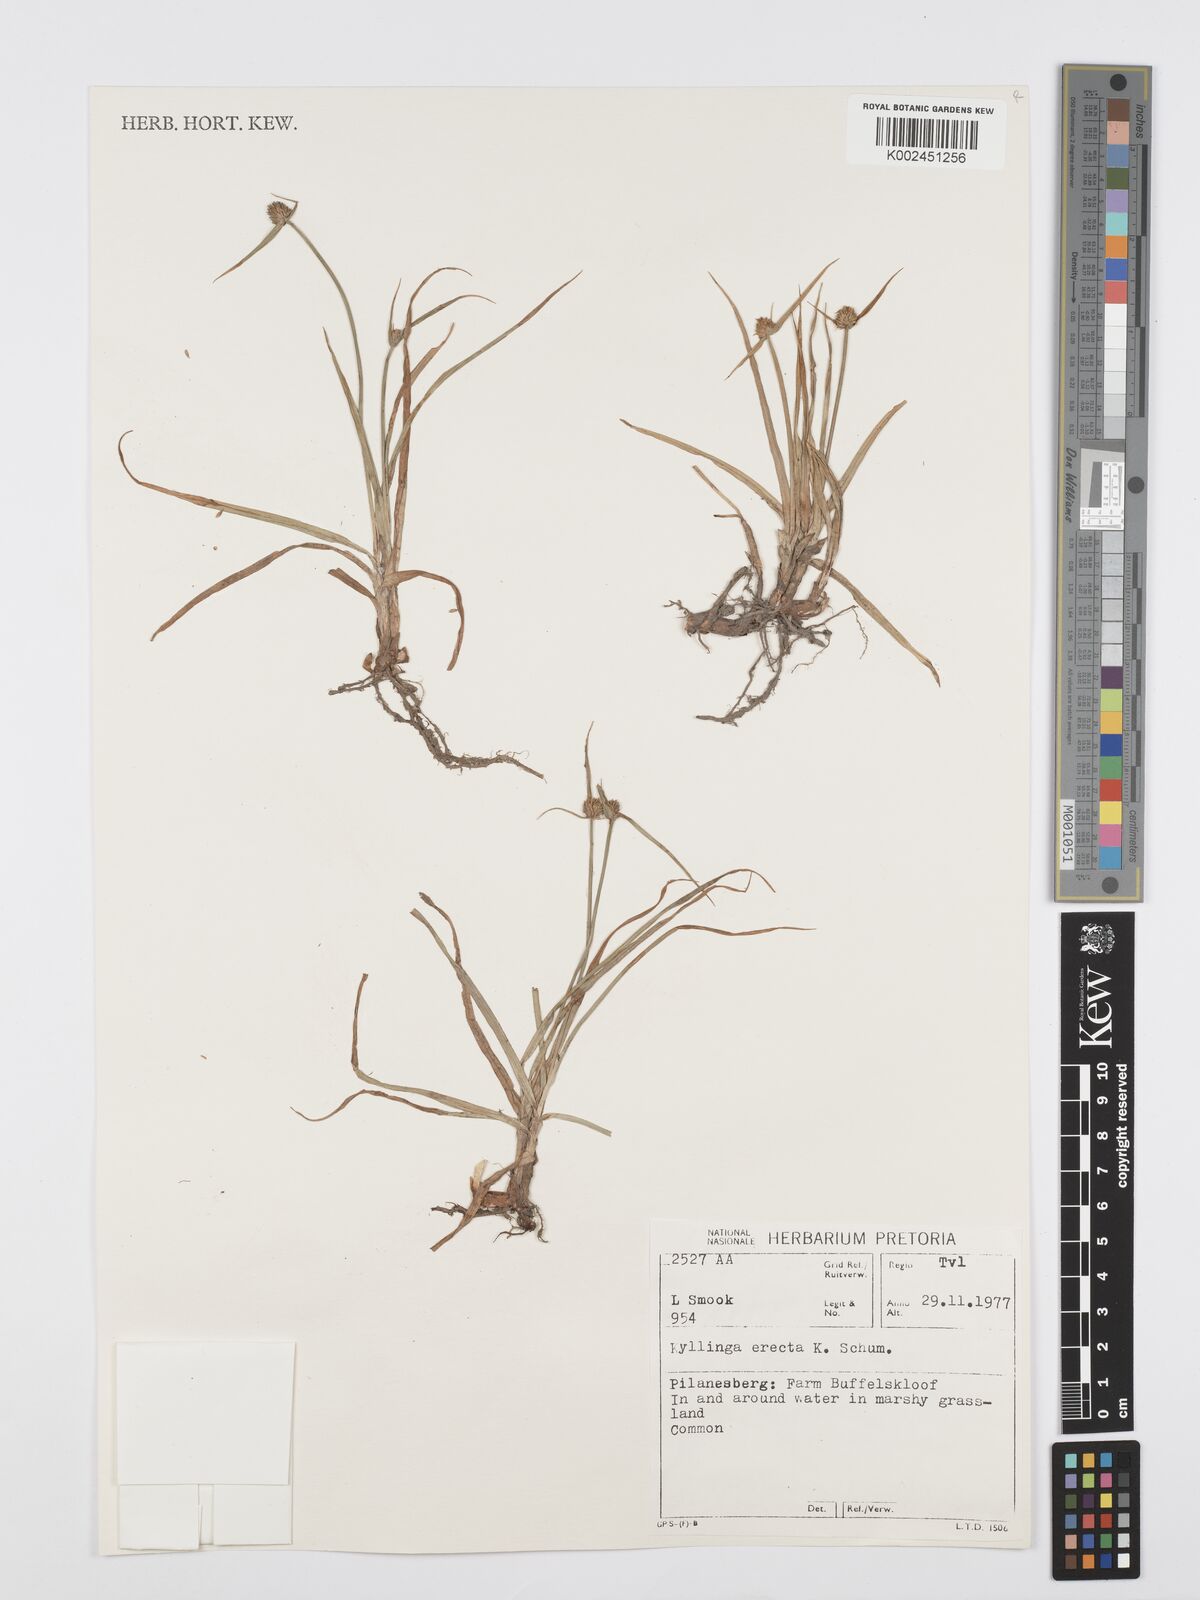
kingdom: Plantae
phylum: Tracheophyta
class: Liliopsida
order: Poales
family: Cyperaceae
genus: Cyperus
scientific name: Cyperus erectus
